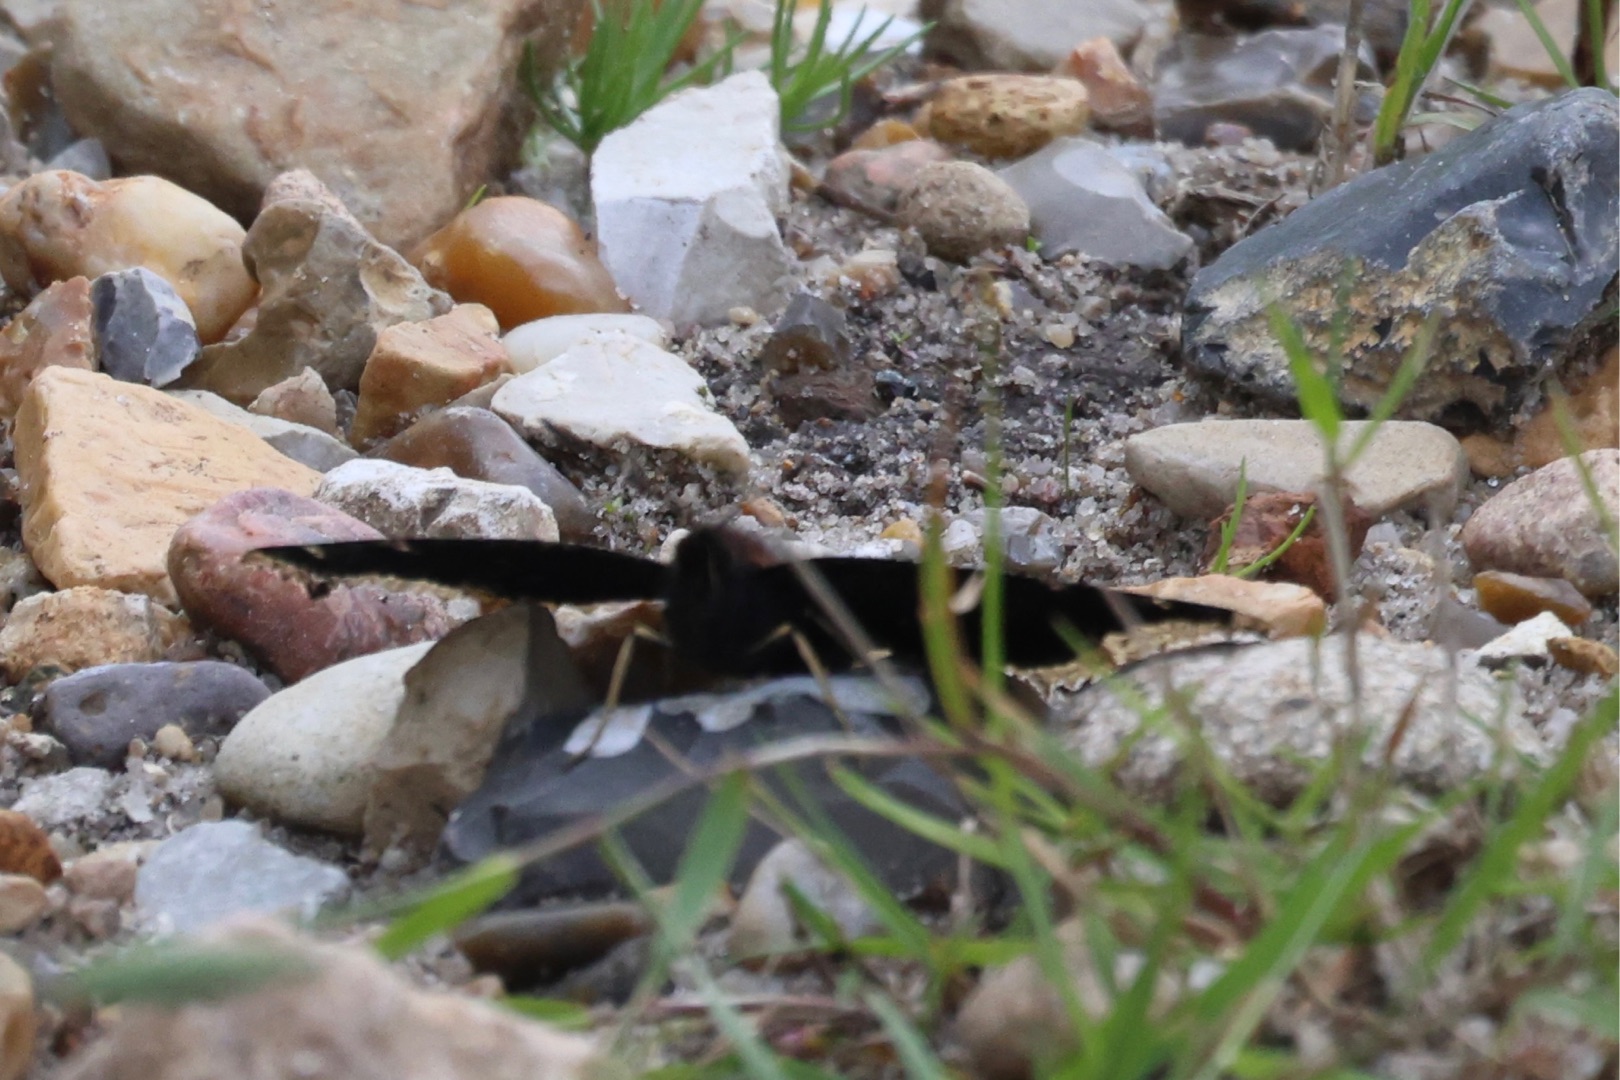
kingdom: Animalia
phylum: Arthropoda
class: Insecta
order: Lepidoptera
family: Nymphalidae
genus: Nymphalis
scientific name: Nymphalis antiopa
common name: Sørgekåbe
